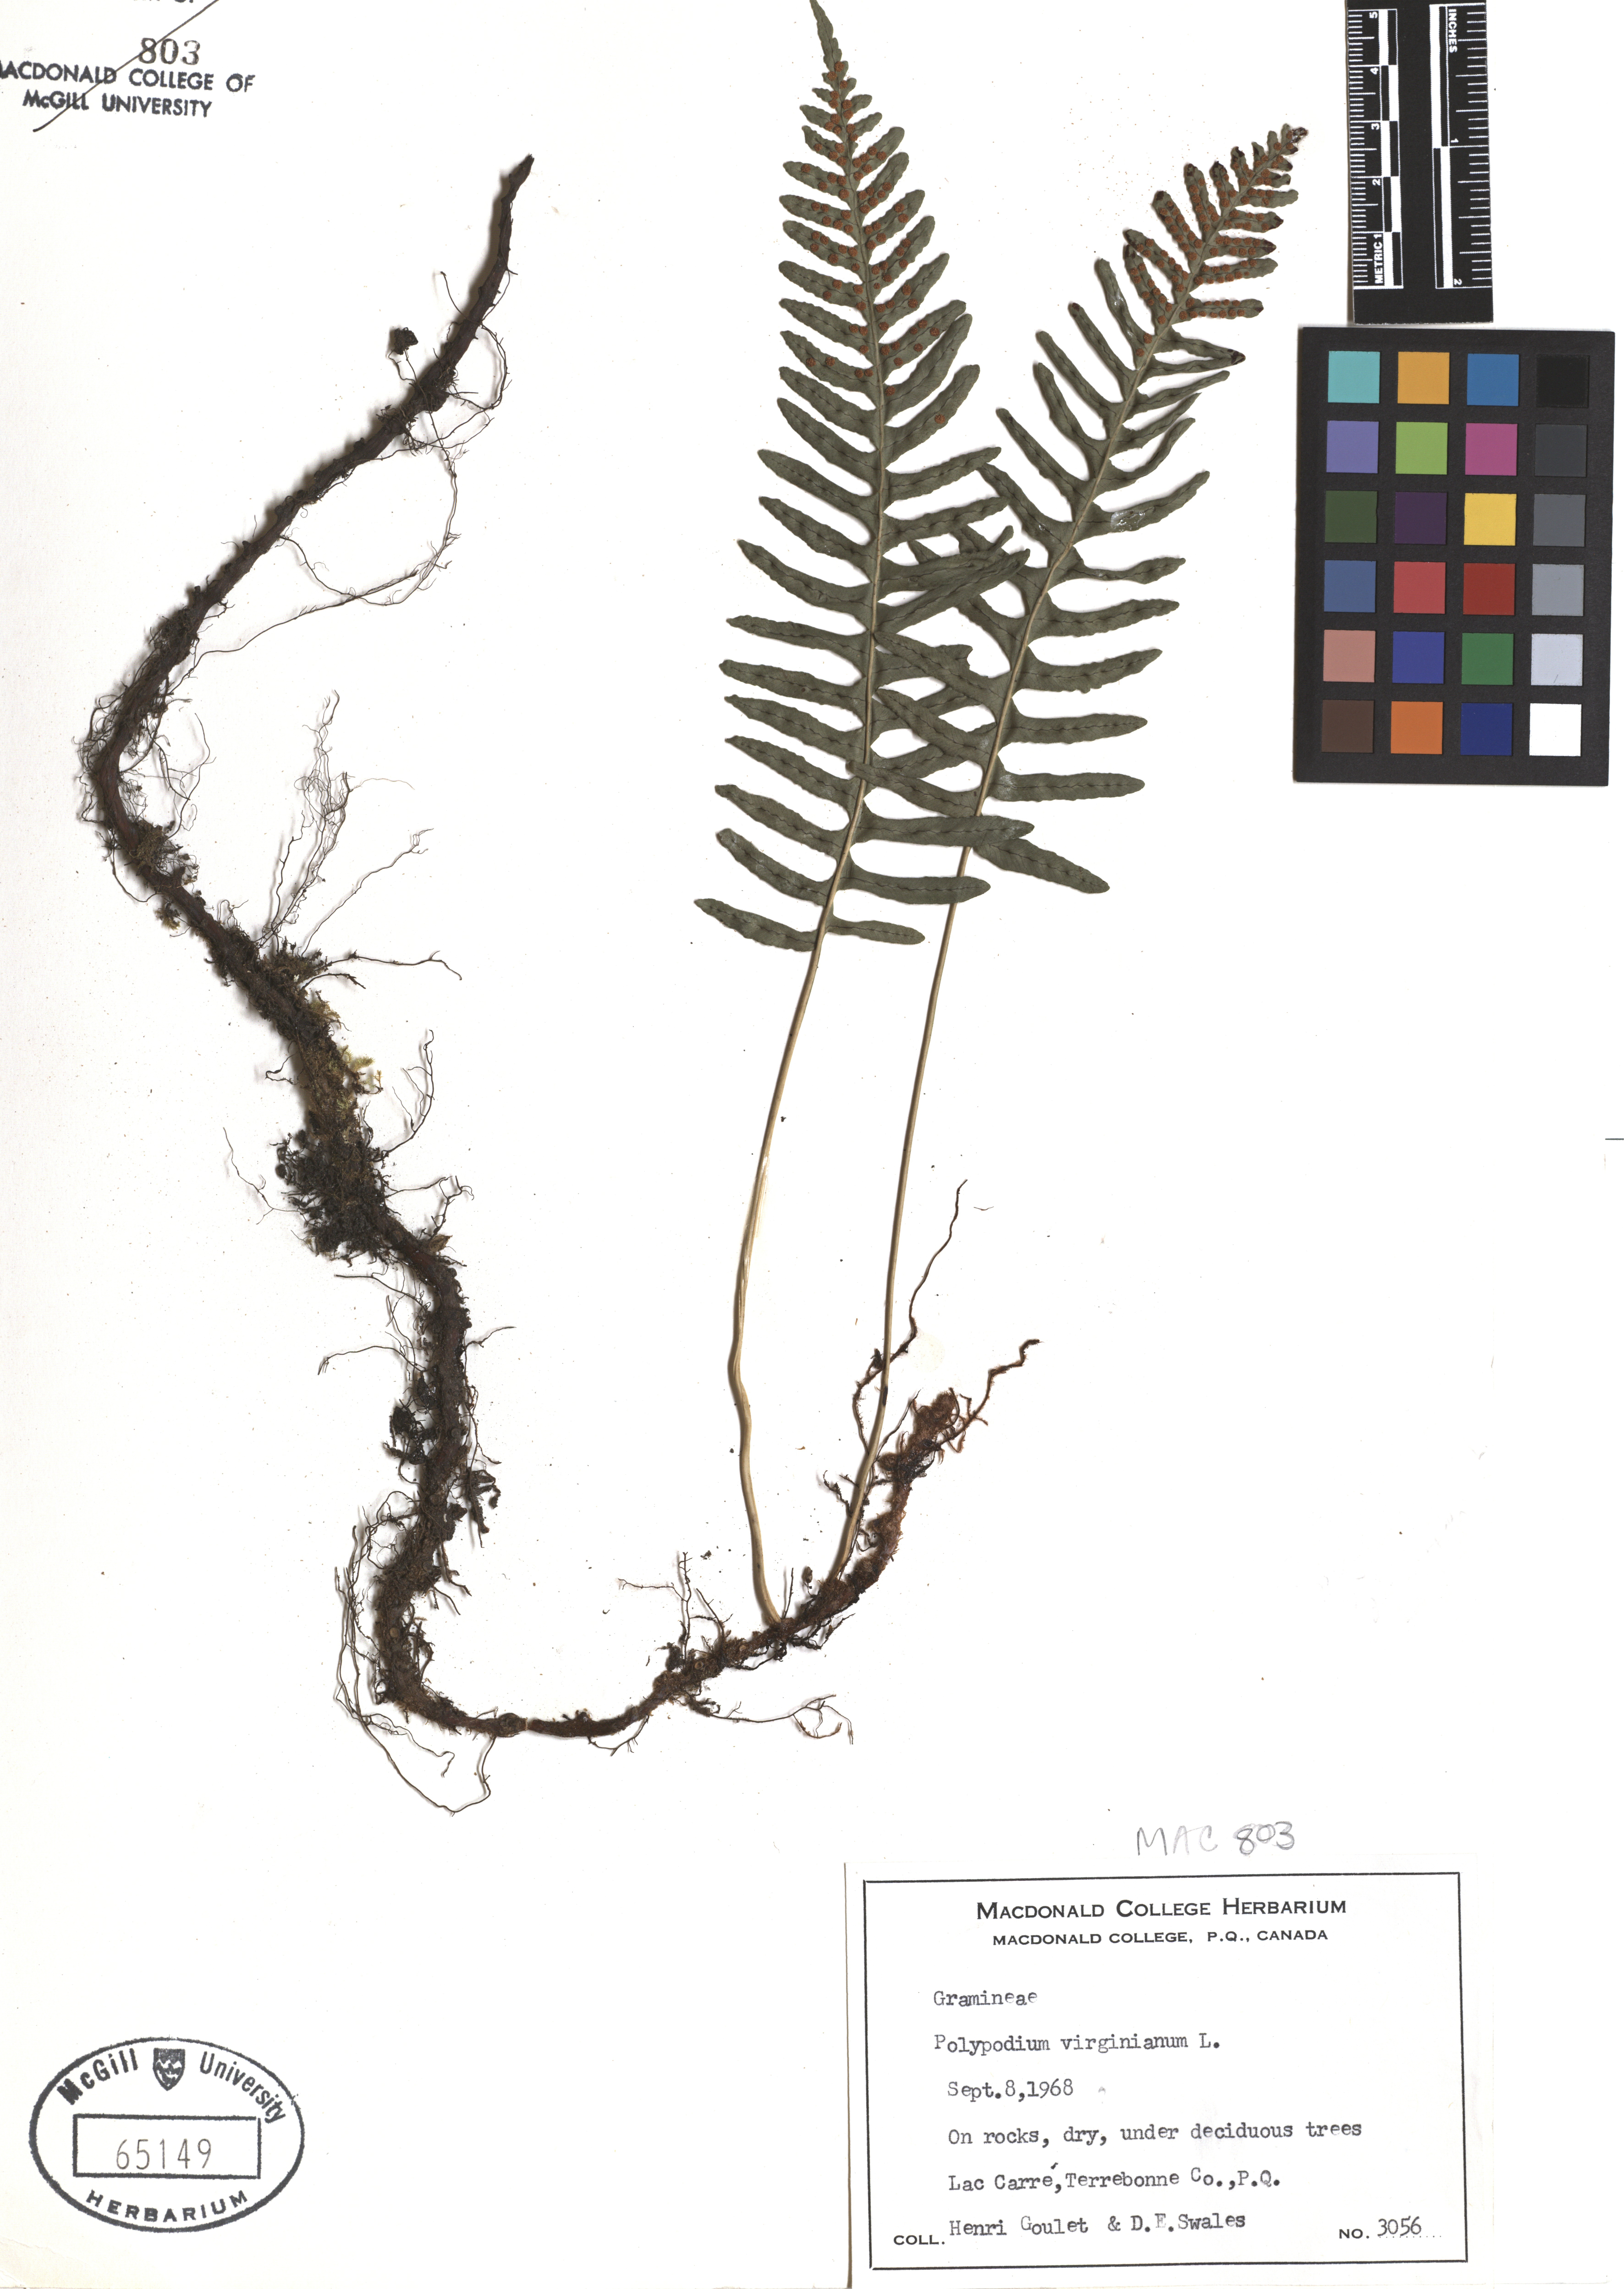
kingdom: Plantae
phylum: Tracheophyta
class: Polypodiopsida
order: Polypodiales
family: Polypodiaceae
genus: Polypodium
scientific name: Polypodium virginianum
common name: American wall fern
